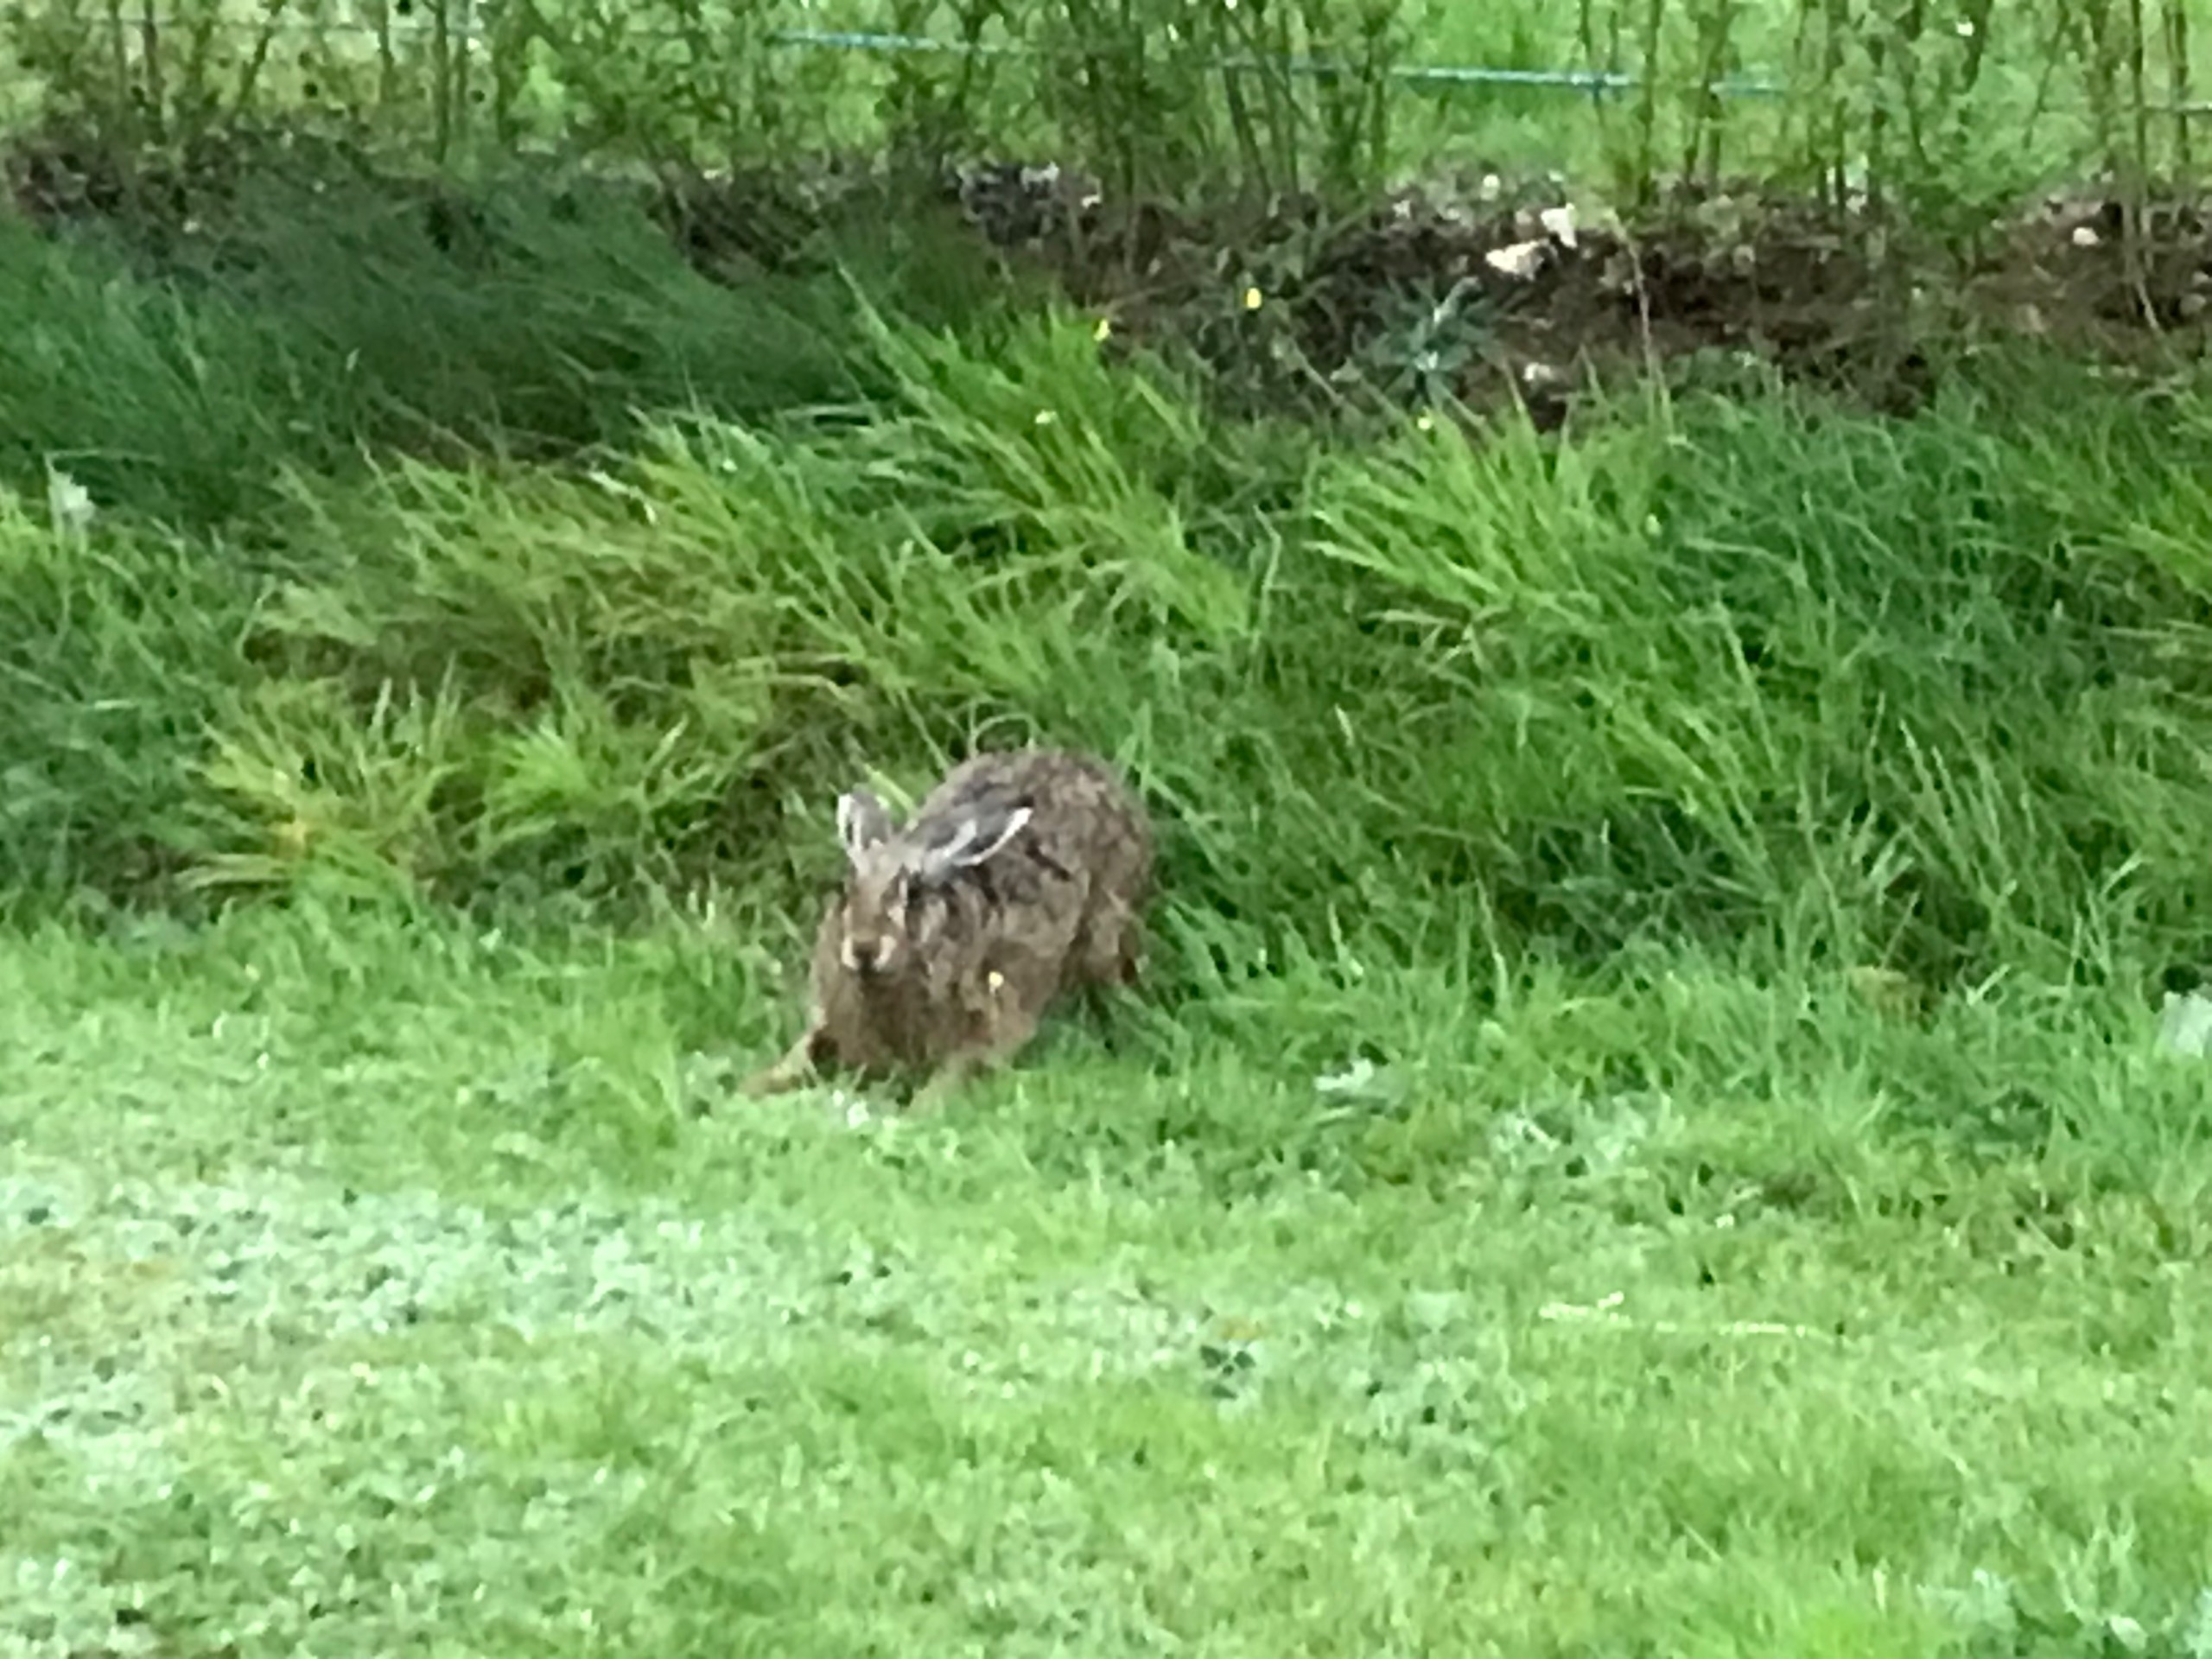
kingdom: Animalia
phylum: Chordata
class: Mammalia
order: Lagomorpha
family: Leporidae
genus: Lepus
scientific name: Lepus europaeus
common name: Hare
